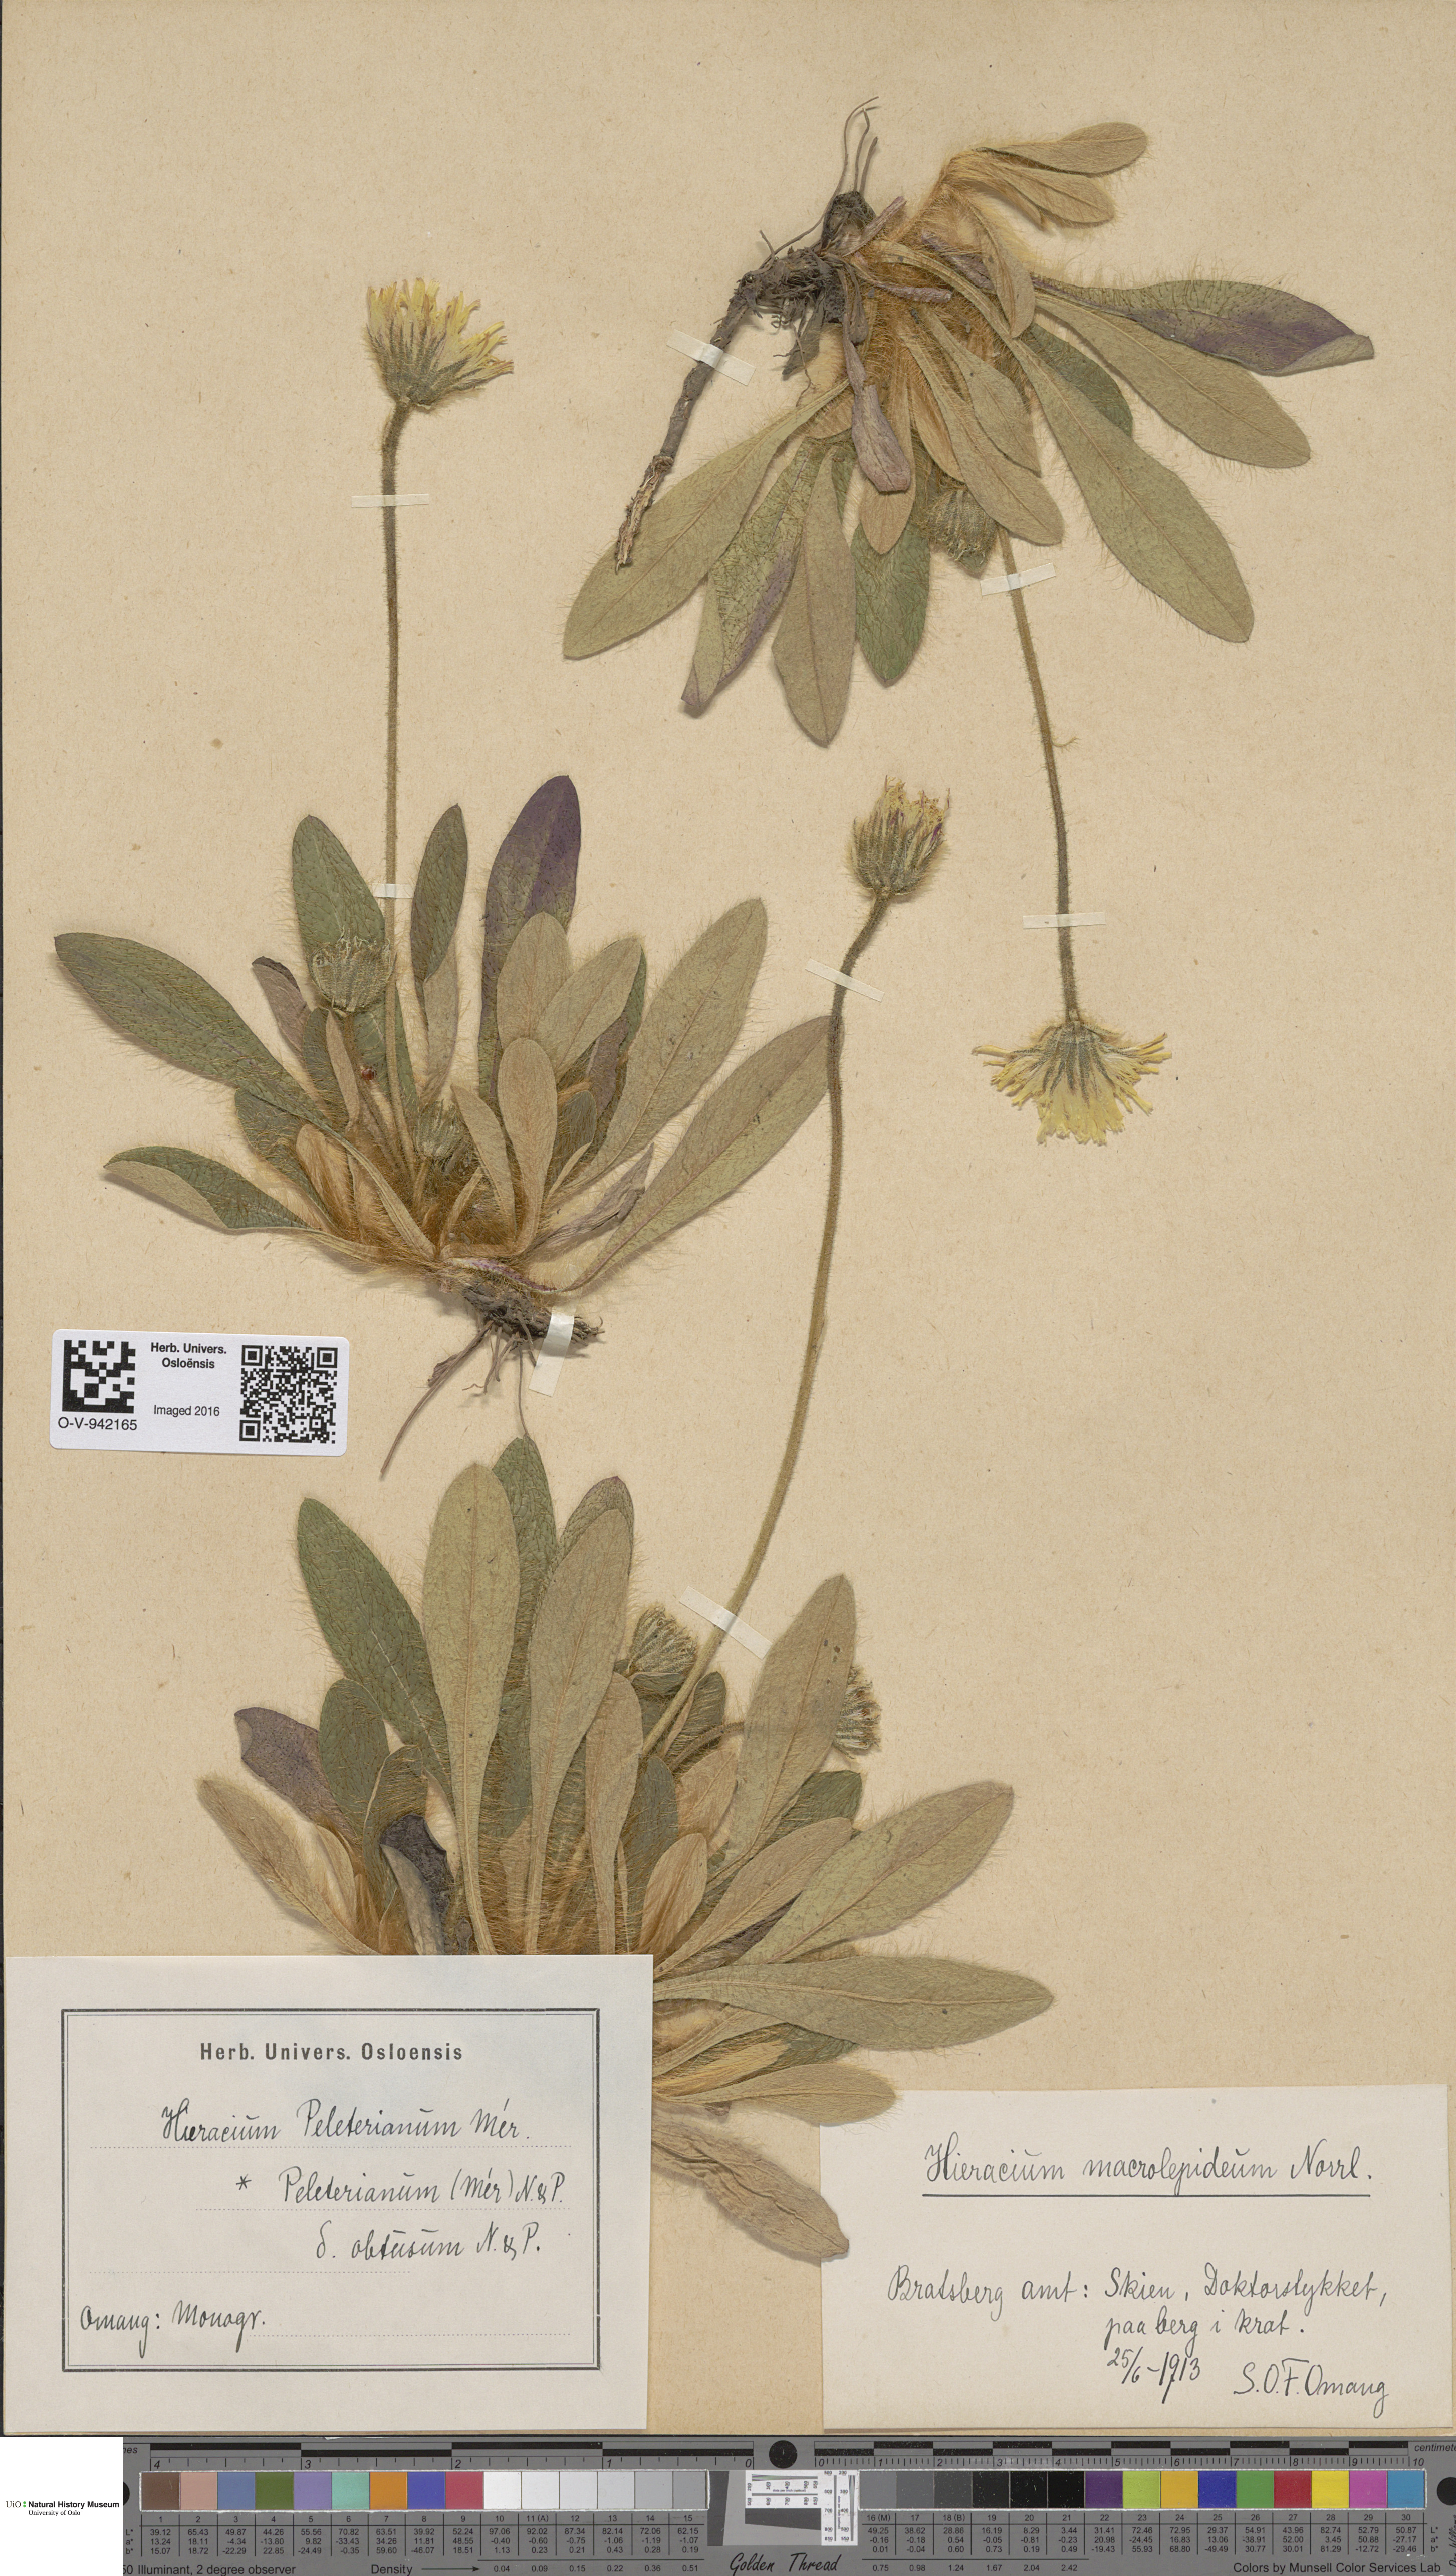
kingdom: Plantae
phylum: Tracheophyta
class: Magnoliopsida
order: Asterales
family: Asteraceae
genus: Pilosella
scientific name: Pilosella peleteriana
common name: Shaggy mouse-ear-hawkweed
